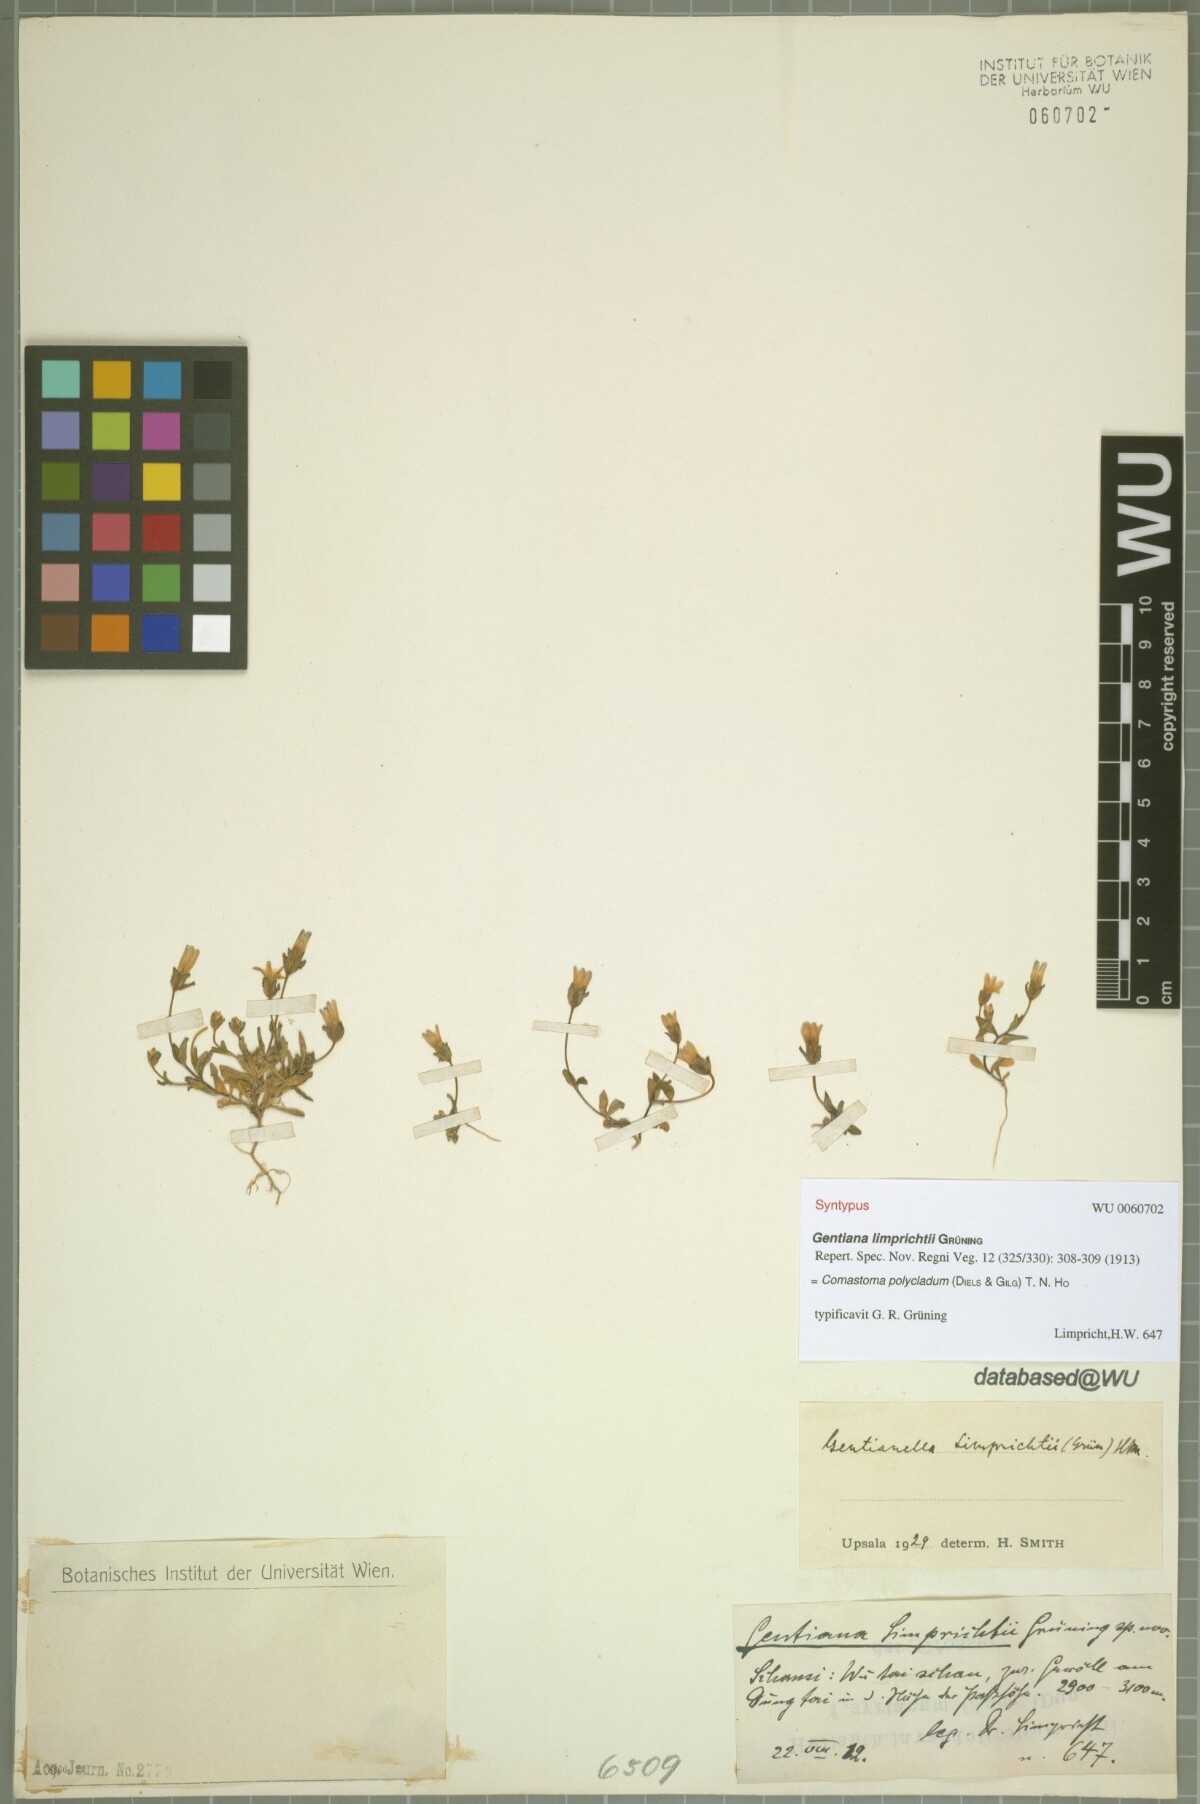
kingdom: Plantae
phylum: Tracheophyta
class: Magnoliopsida
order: Gentianales
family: Gentianaceae
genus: Comastoma
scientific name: Comastoma polycladum
